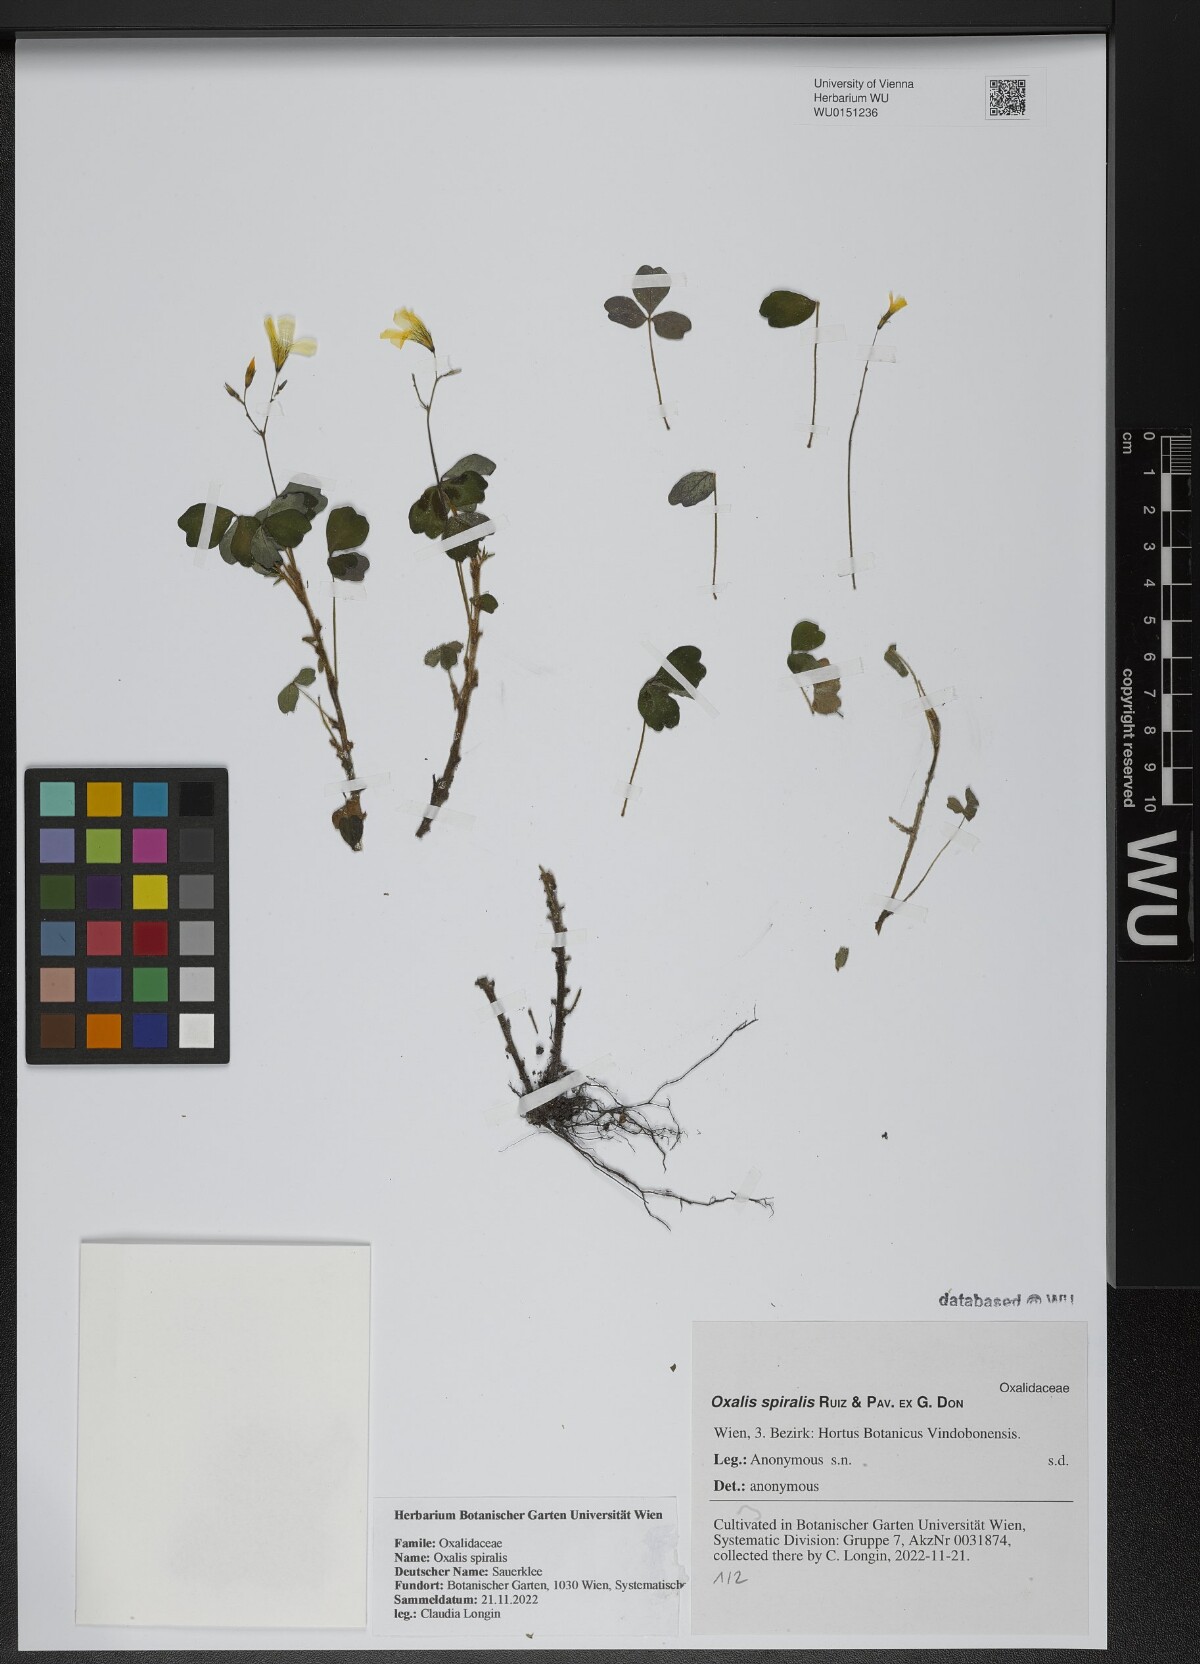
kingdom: Plantae
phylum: Tracheophyta
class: Magnoliopsida
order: Oxalidales
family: Oxalidaceae
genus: Oxalis
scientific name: Oxalis spiralis
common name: Spiral sorrel
